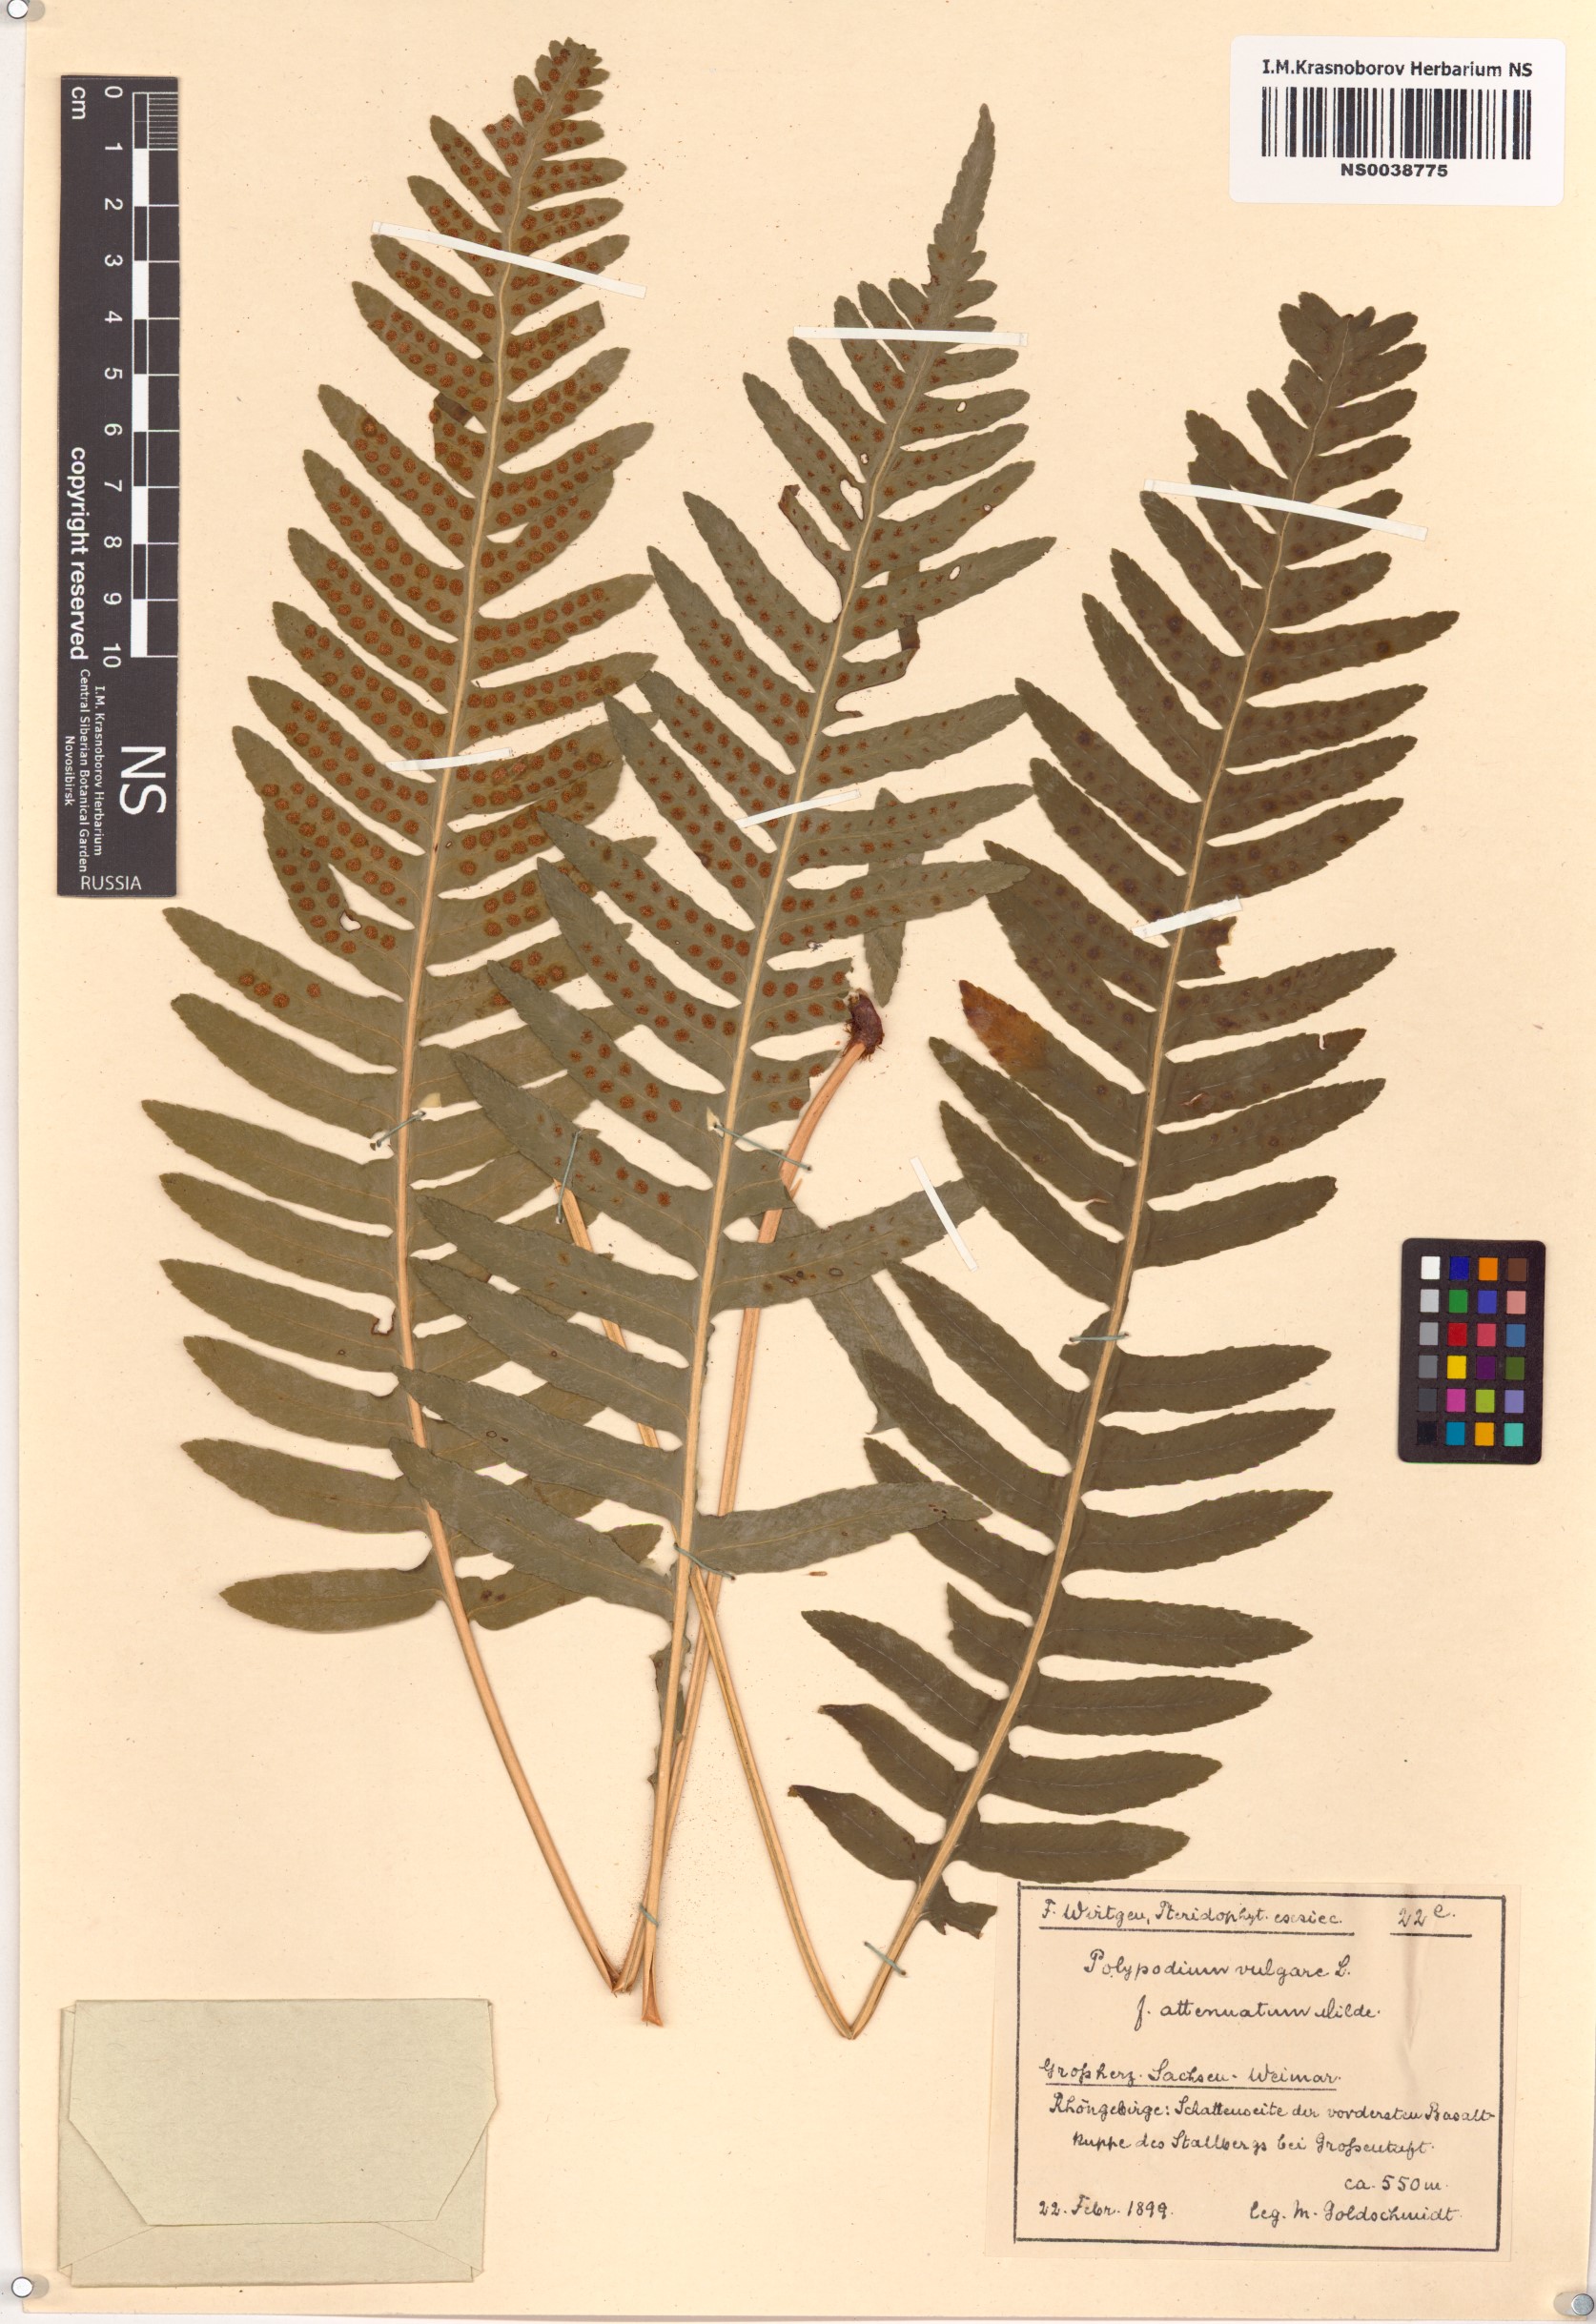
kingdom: Plantae
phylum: Tracheophyta
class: Polypodiopsida
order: Polypodiales
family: Polypodiaceae
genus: Polypodium
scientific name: Polypodium vulgare
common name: Common polypody
